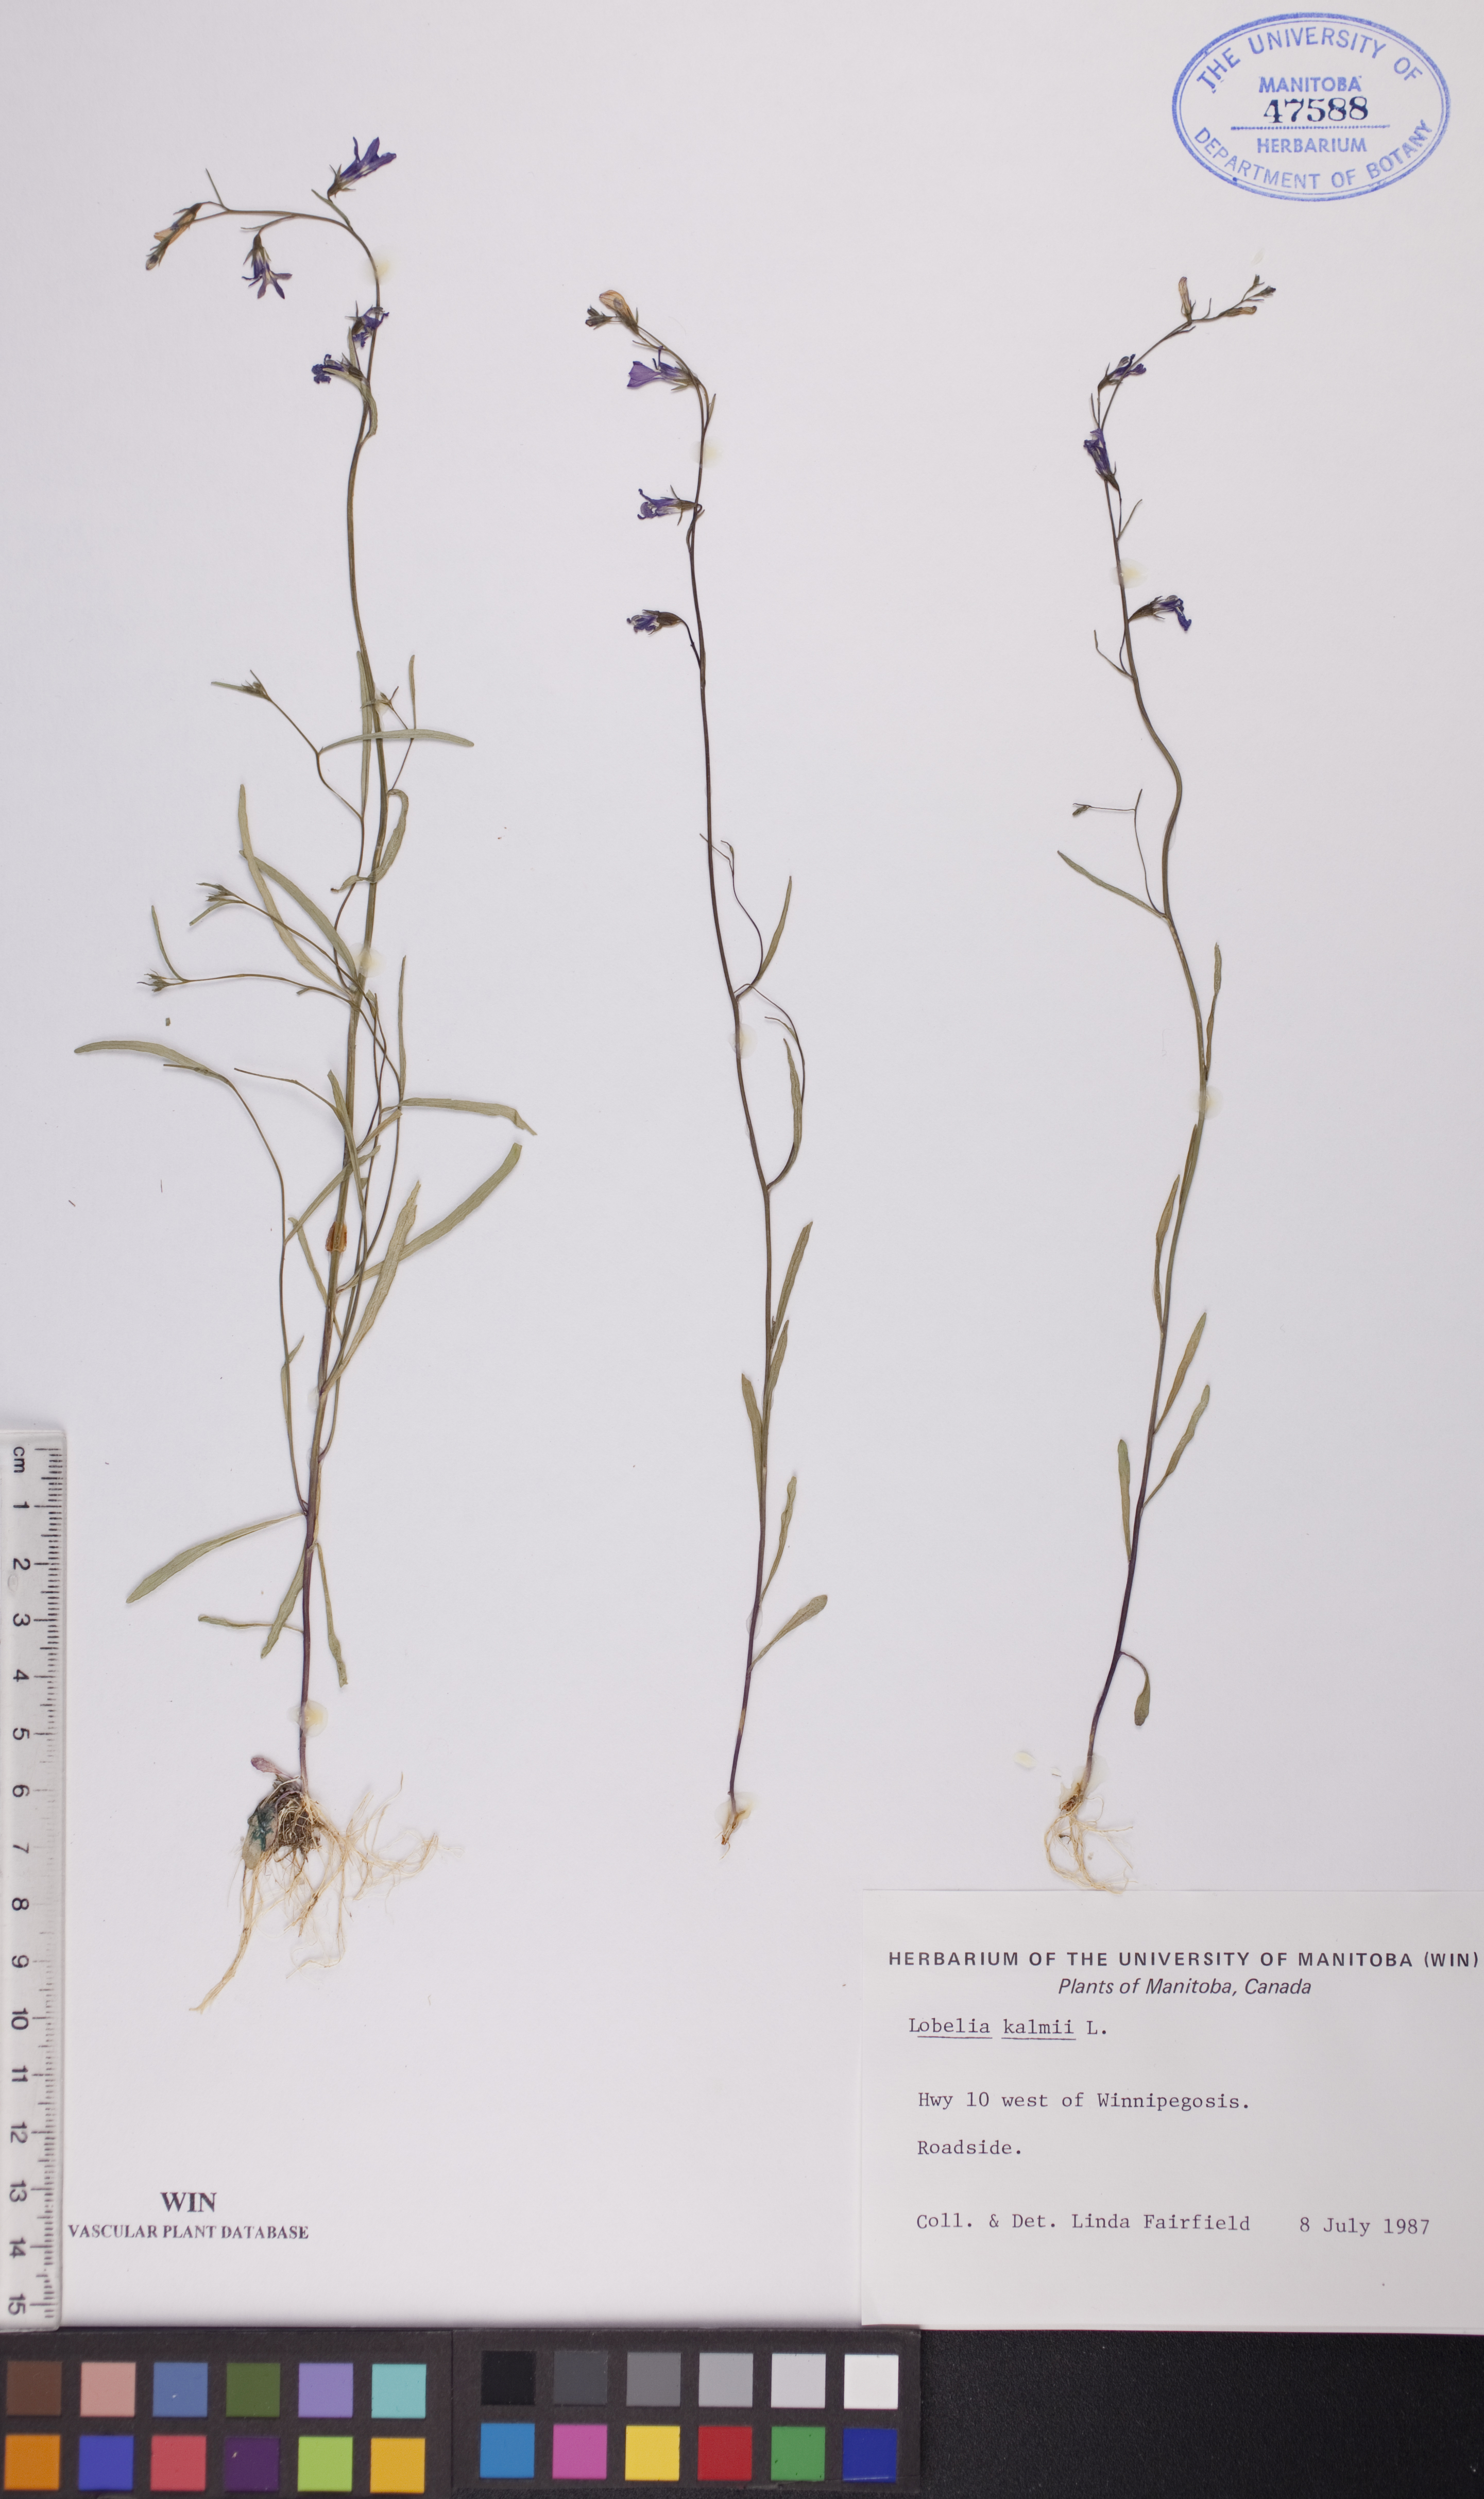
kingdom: Plantae
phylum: Tracheophyta
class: Magnoliopsida
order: Asterales
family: Campanulaceae
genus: Lobelia
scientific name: Lobelia kalmii
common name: Kalm's lobelia
